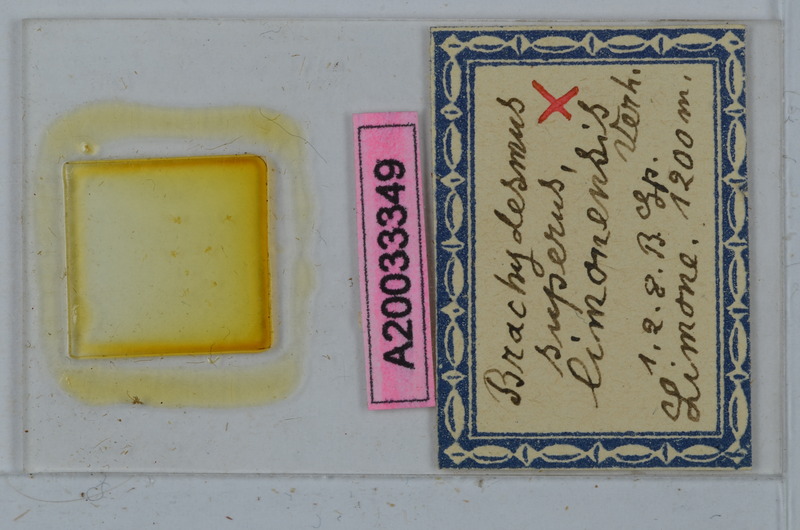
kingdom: Animalia
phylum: Arthropoda
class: Diplopoda
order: Polydesmida
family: Polydesmidae
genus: Brachydesmus
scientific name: Brachydesmus superus
